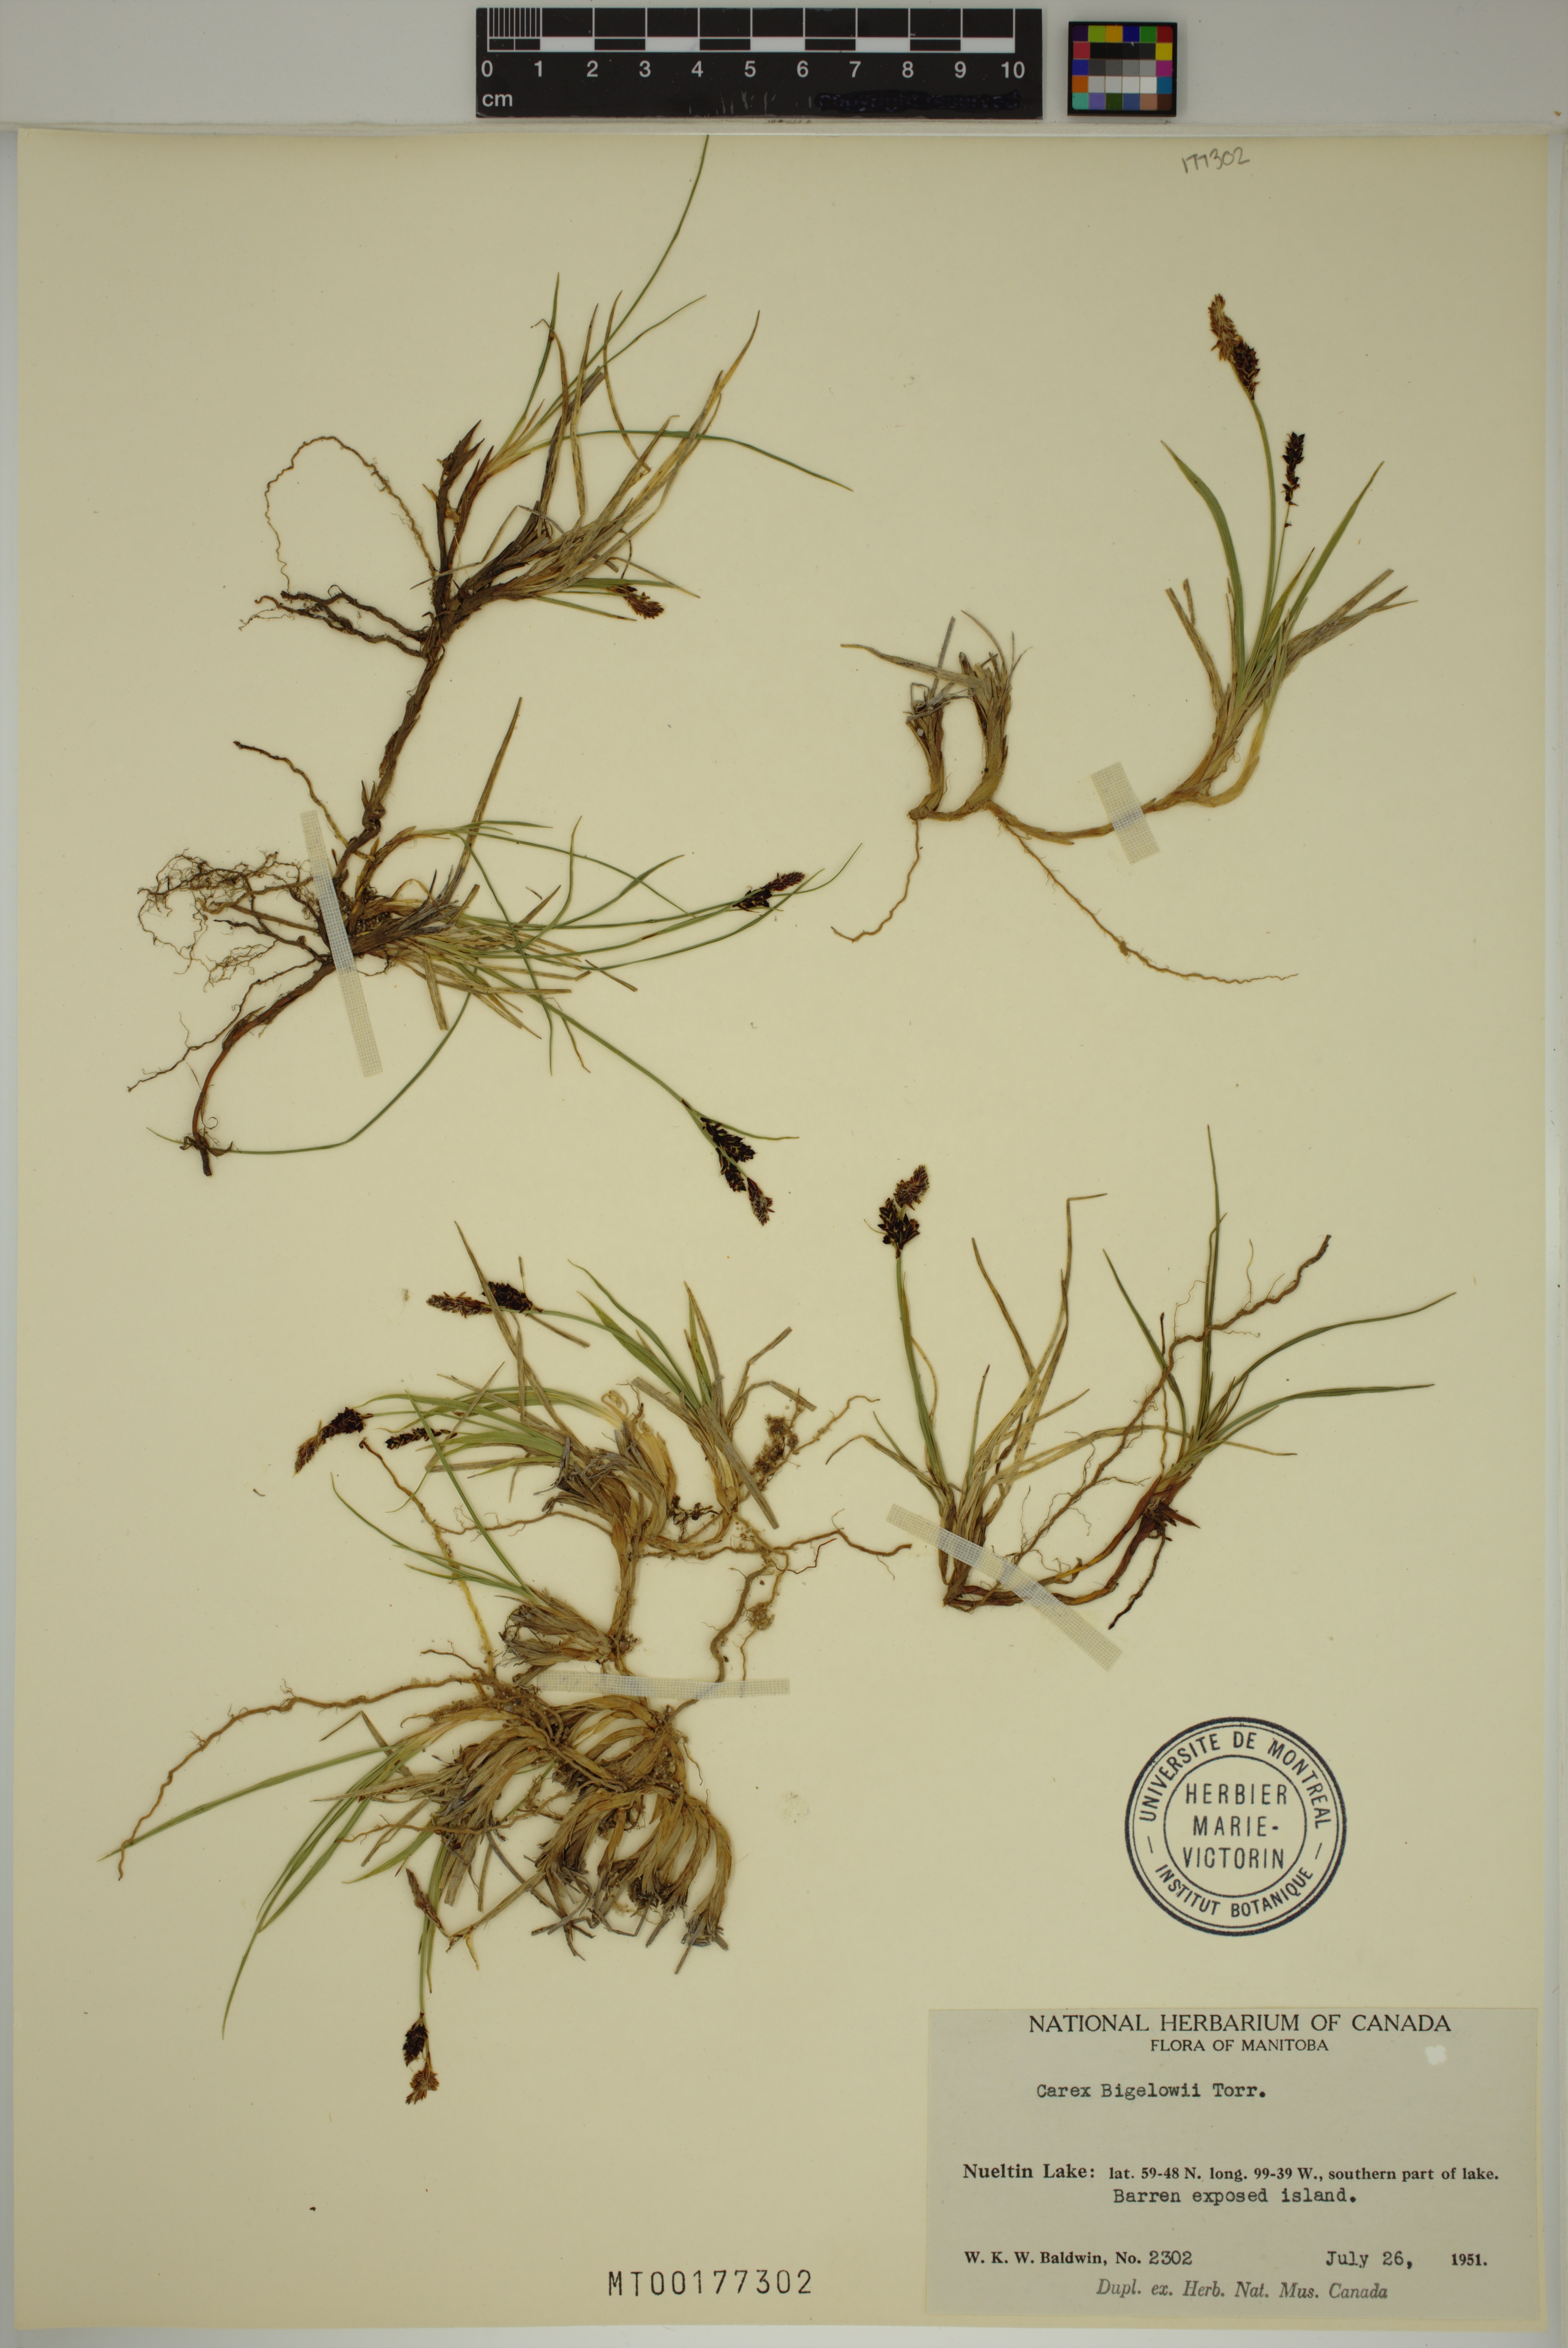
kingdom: Plantae
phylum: Tracheophyta
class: Liliopsida
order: Poales
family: Cyperaceae
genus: Carex
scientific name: Carex bigelowii
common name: Stiff sedge
